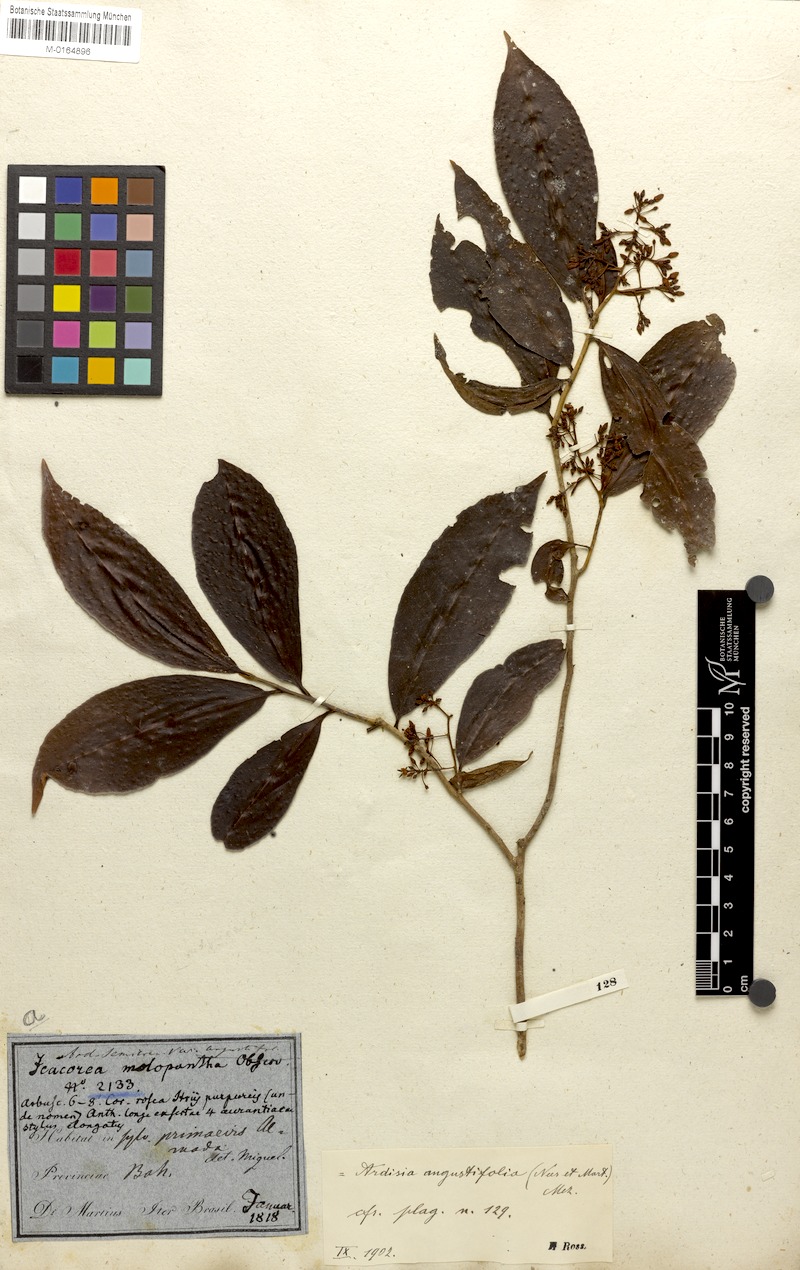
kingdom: Plantae
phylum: Tracheophyta
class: Magnoliopsida
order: Ericales
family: Primulaceae
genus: Ardisia
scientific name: Ardisia guianensis
